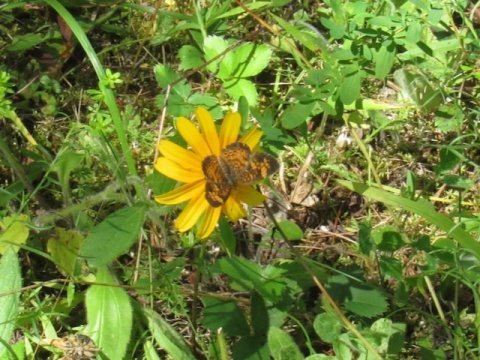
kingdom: Animalia
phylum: Arthropoda
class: Insecta
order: Lepidoptera
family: Nymphalidae
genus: Phyciodes
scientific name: Phyciodes tharos
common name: Pearl Crescent
